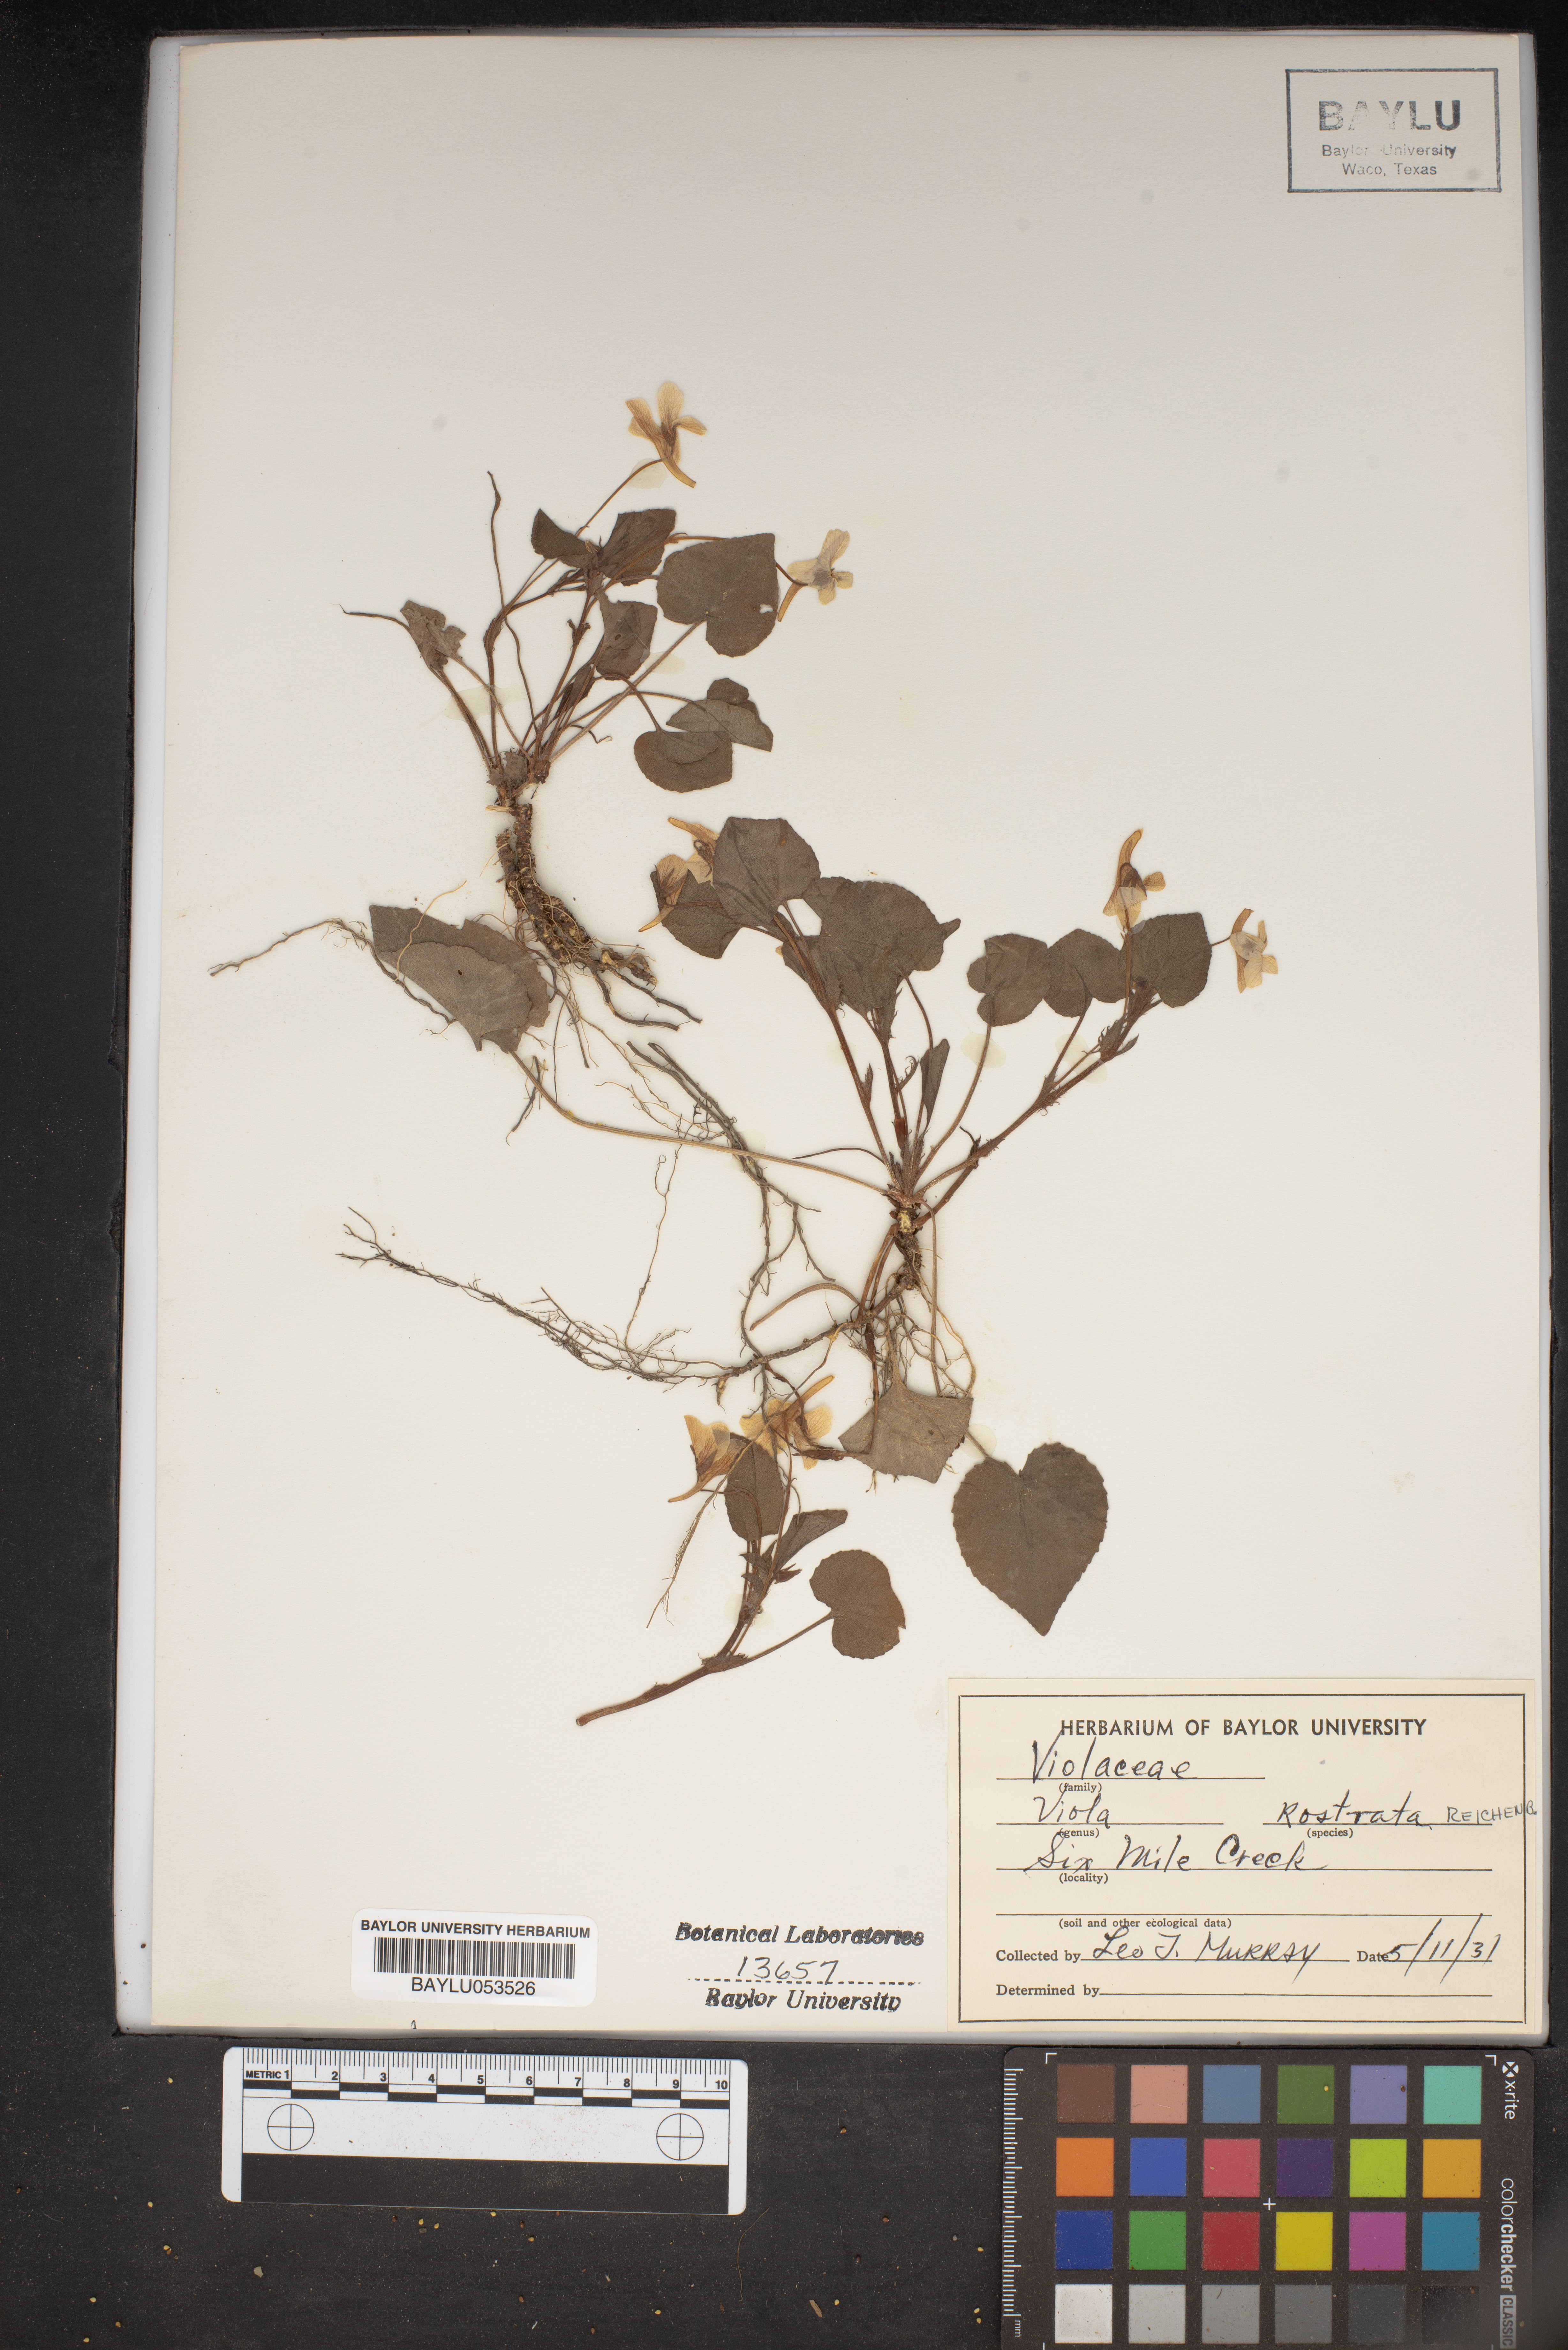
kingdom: Plantae
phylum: Tracheophyta
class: Magnoliopsida
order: Malpighiales
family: Violaceae
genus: Viola
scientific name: Viola rostrata
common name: Long-spur violet
